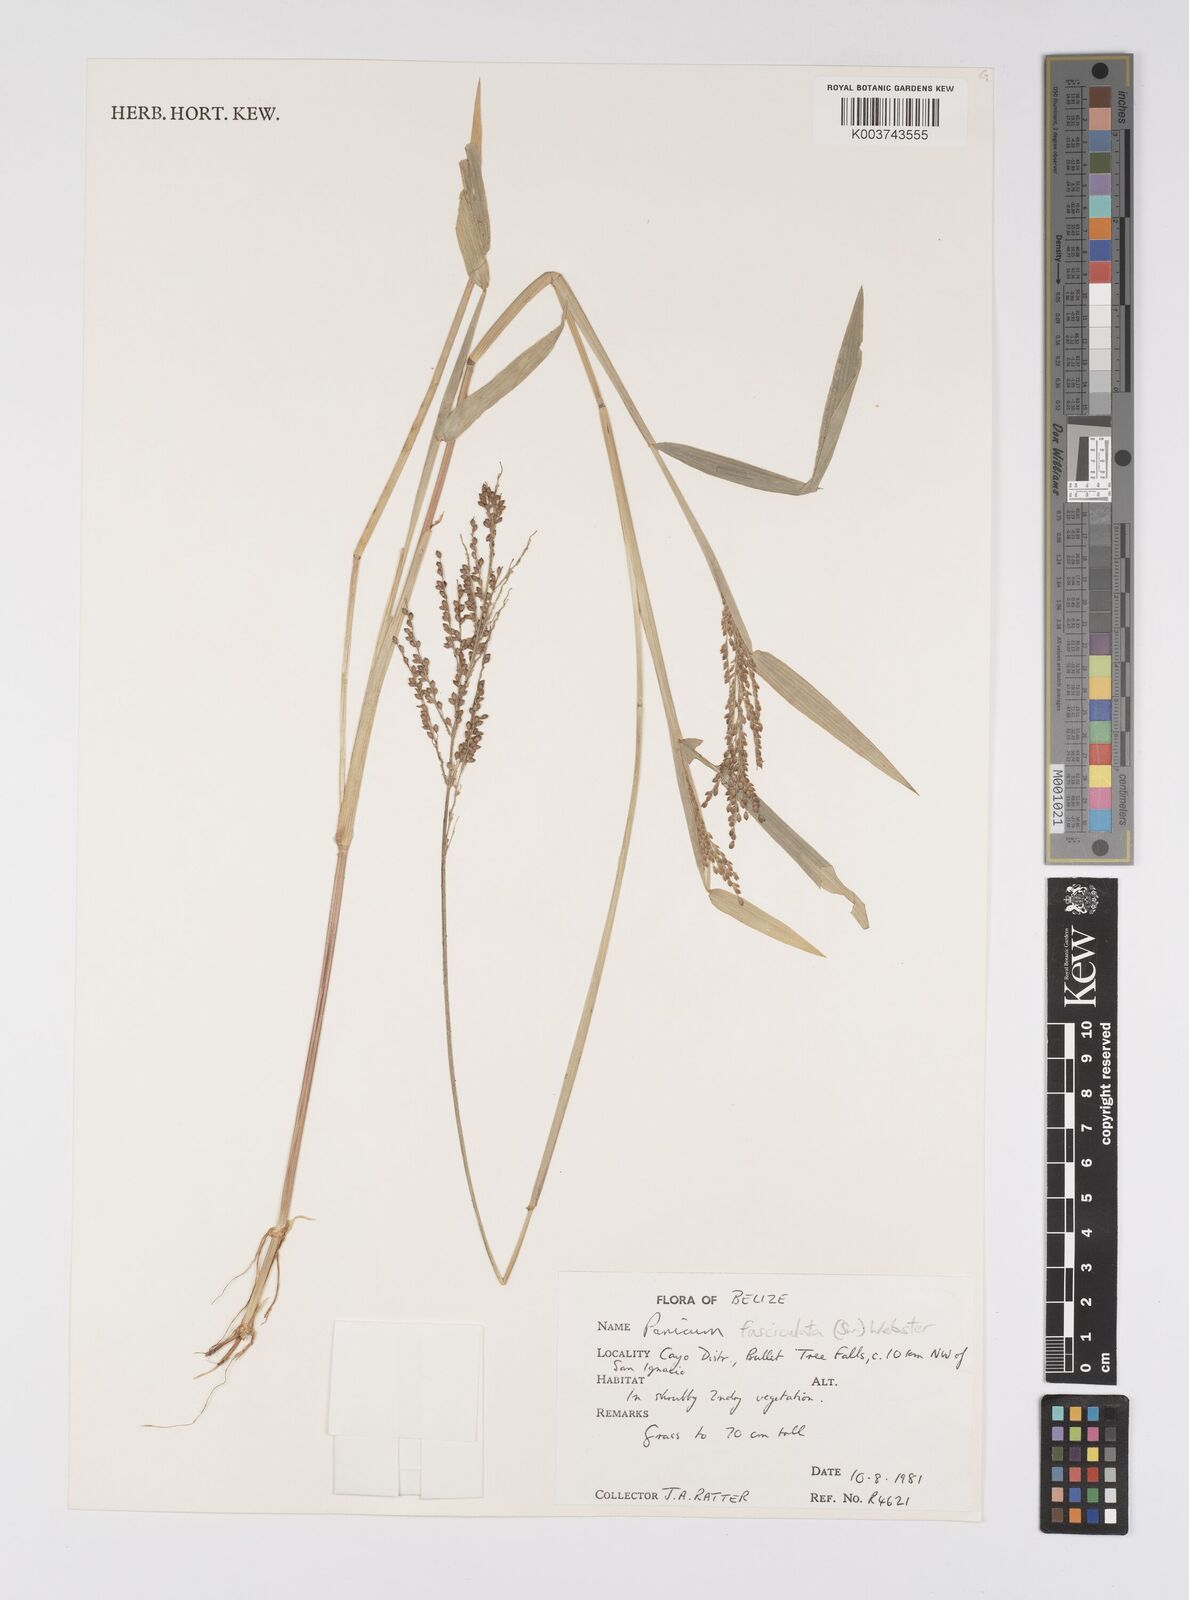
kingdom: Plantae
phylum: Tracheophyta
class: Liliopsida
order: Poales
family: Poaceae
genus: Urochloa
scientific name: Urochloa fusca
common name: Browntop signal grass
